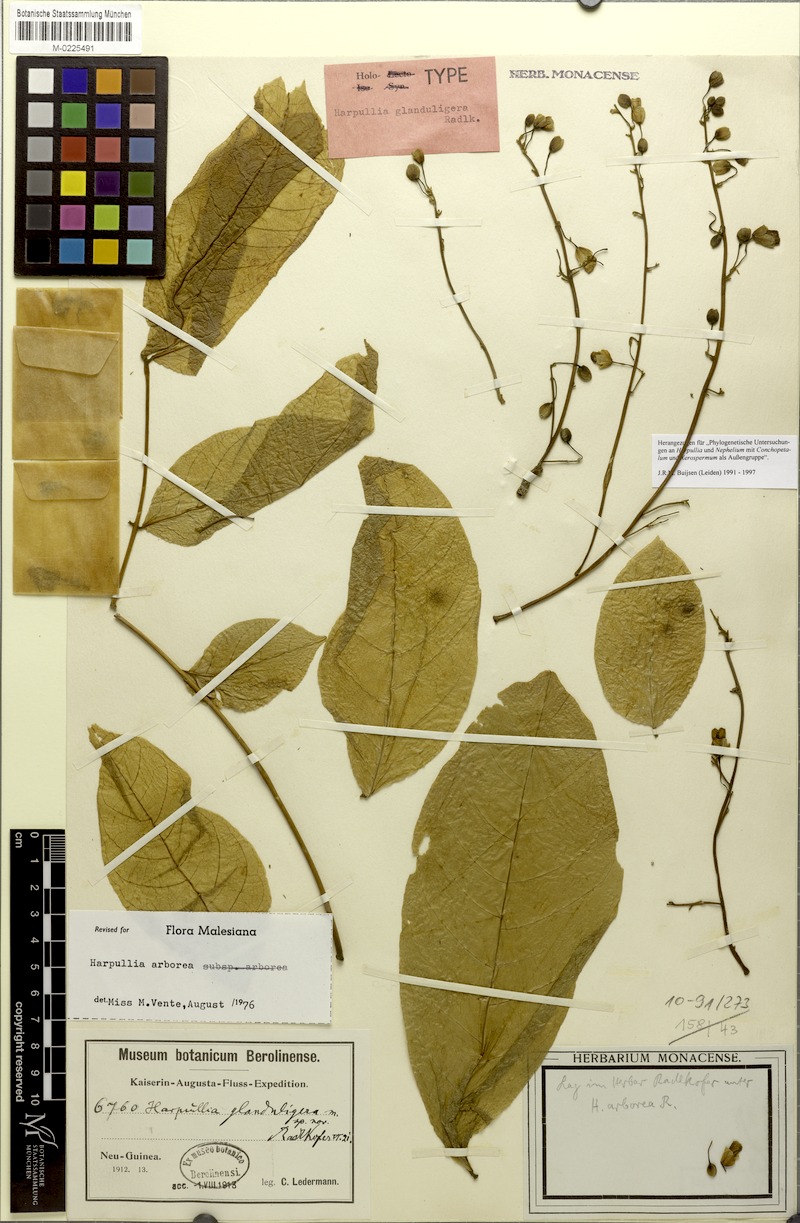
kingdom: Plantae
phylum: Tracheophyta
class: Magnoliopsida
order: Sapindales
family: Sapindaceae
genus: Harpullia
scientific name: Harpullia arborea
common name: Tulip-wood tree
